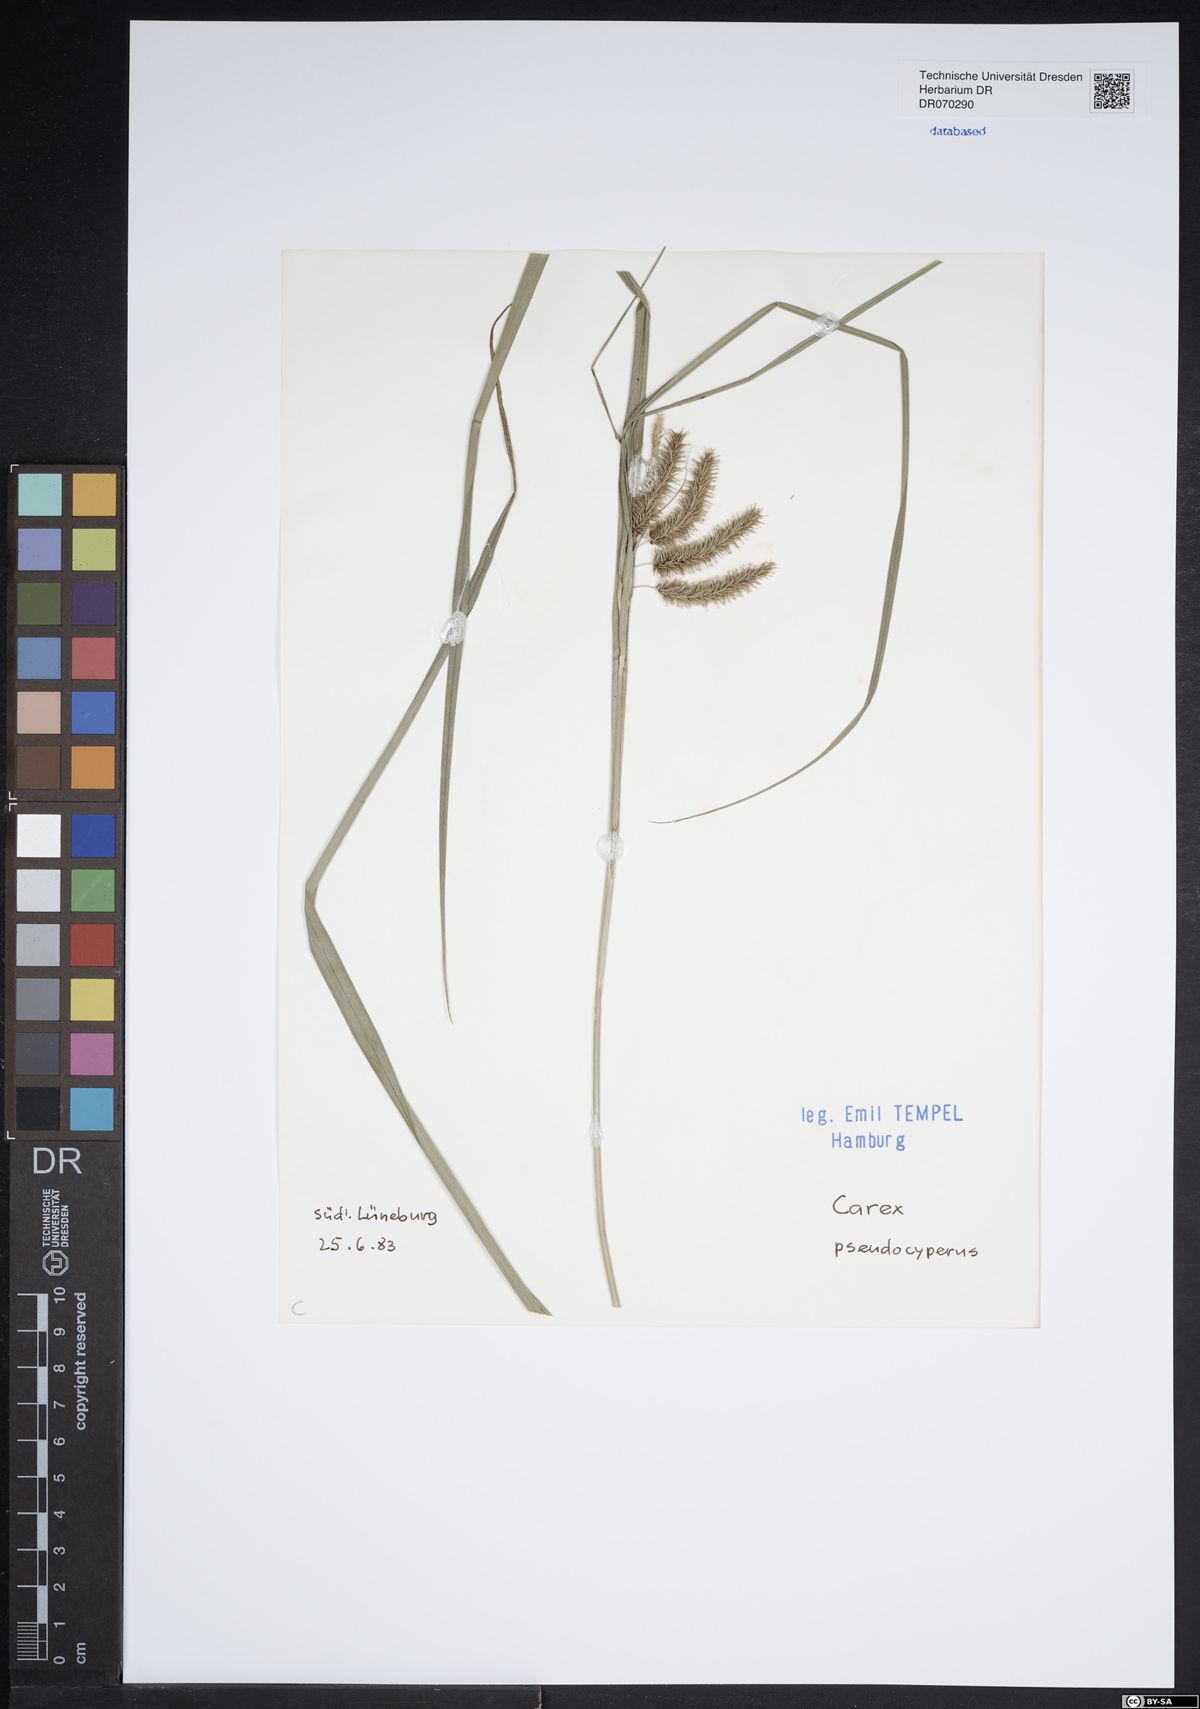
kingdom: Plantae
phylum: Tracheophyta
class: Liliopsida
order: Poales
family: Cyperaceae
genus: Carex
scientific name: Carex pseudocyperus
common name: Cyperus sedge
